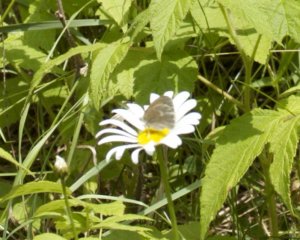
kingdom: Animalia
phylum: Arthropoda
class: Insecta
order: Lepidoptera
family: Nymphalidae
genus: Coenonympha
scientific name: Coenonympha tullia
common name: Large Heath
